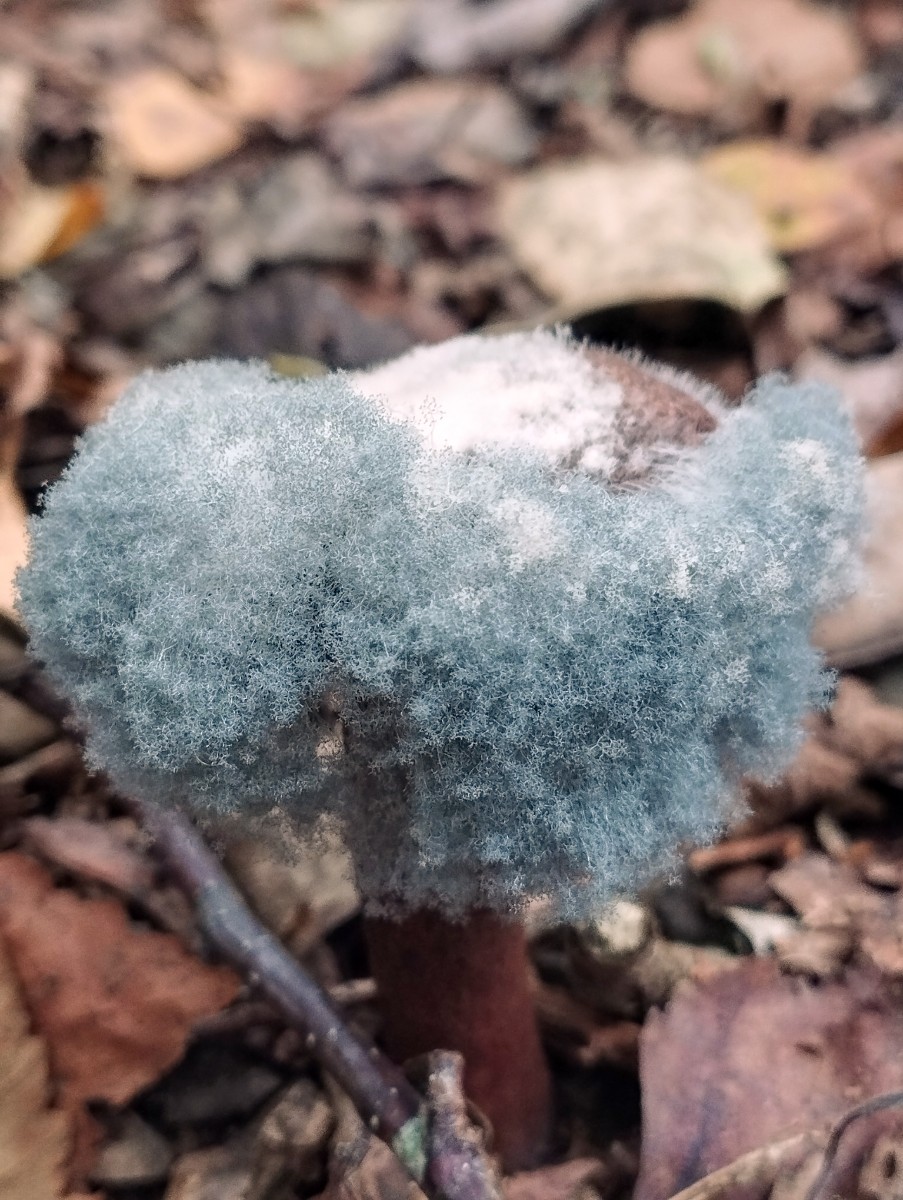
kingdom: Fungi
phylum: Mucoromycota
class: Mucoromycetes
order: Mucorales
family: Rhizopodaceae
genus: Syzygites
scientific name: Syzygites megalocarpus
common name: nissenål
